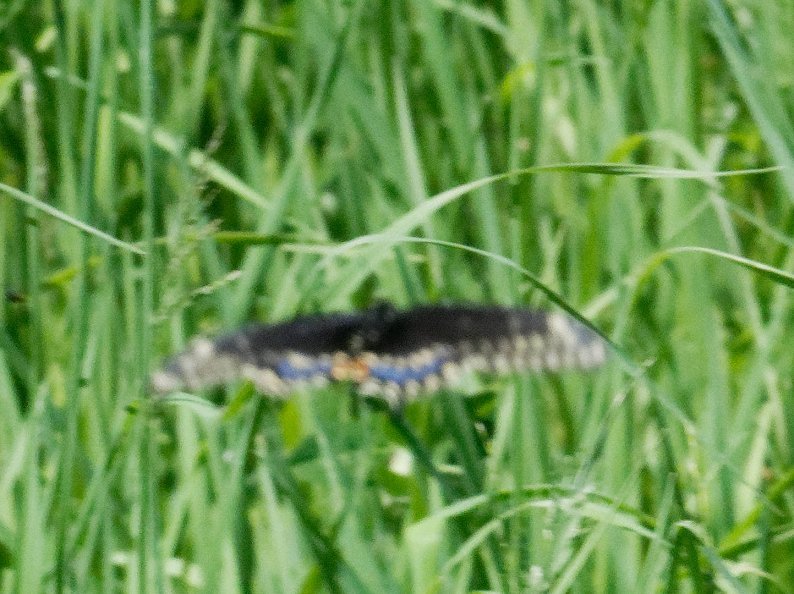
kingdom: Animalia
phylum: Arthropoda
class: Insecta
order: Lepidoptera
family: Papilionidae
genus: Papilio
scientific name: Papilio polyxenes
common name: Black Swallowtail
